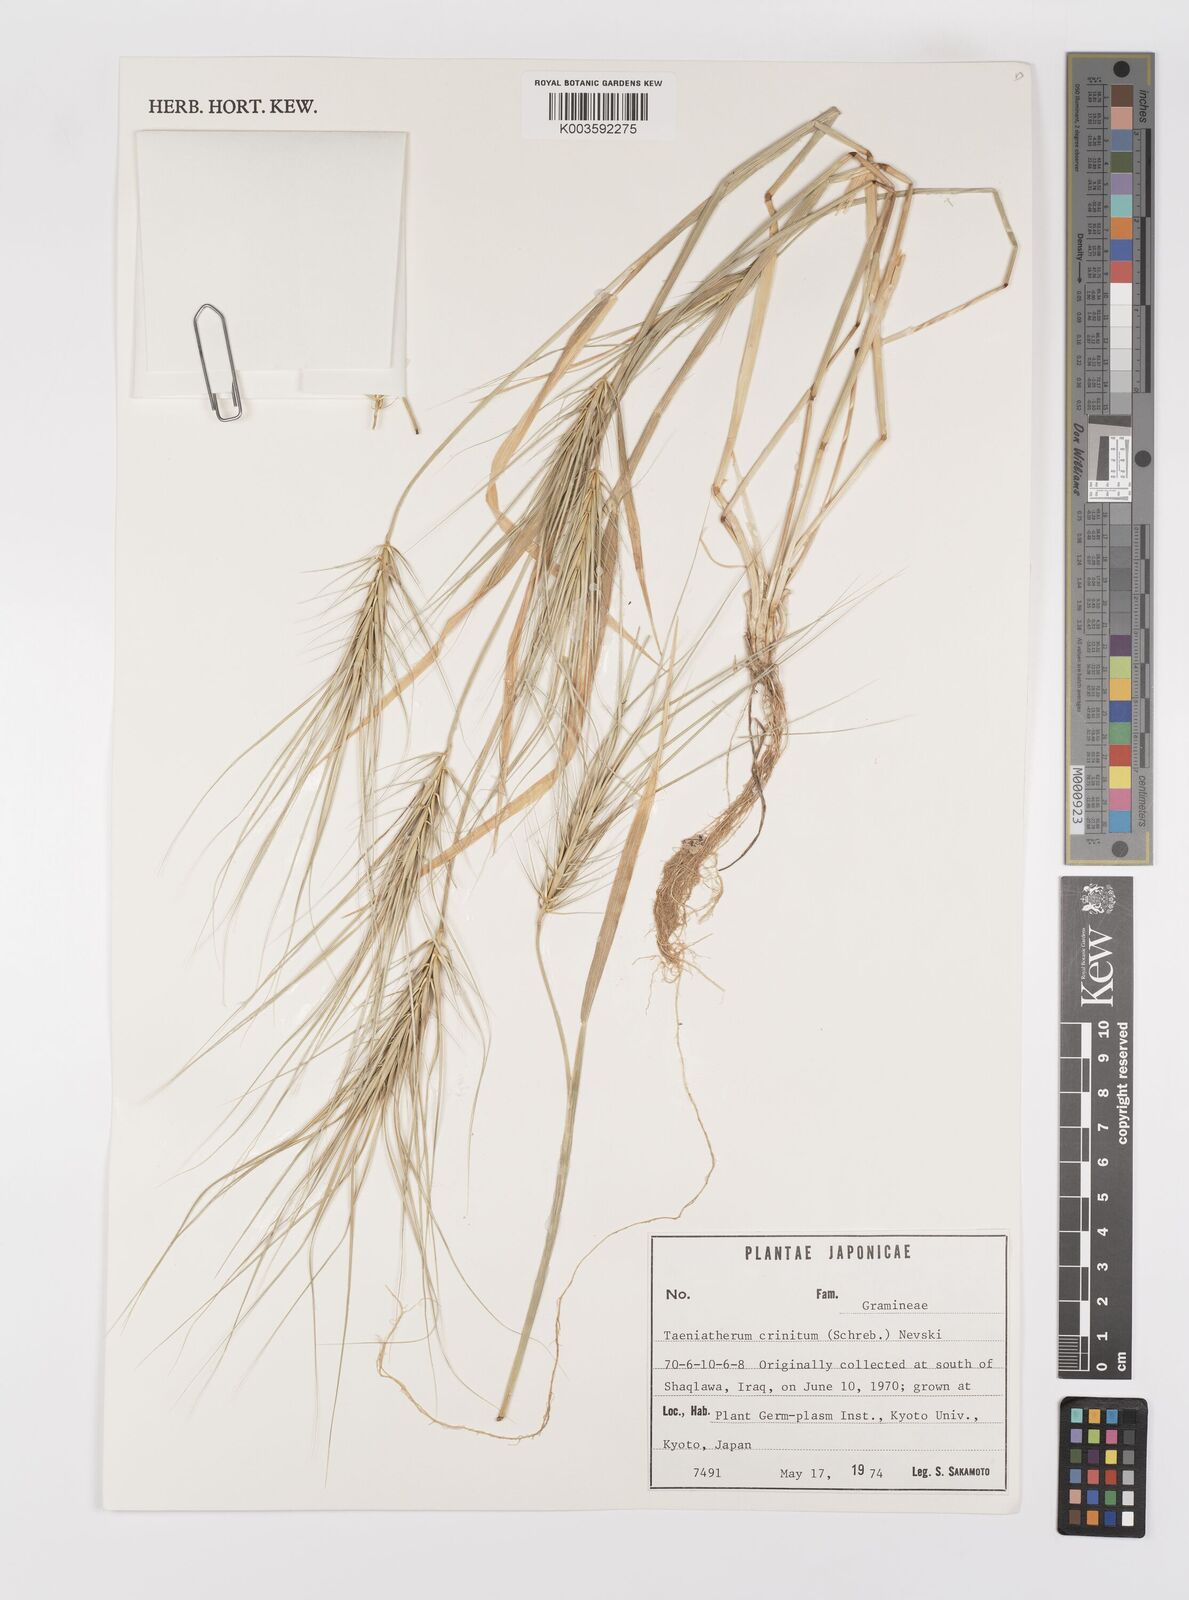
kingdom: Plantae
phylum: Tracheophyta
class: Liliopsida
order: Poales
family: Poaceae
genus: Taeniatherum
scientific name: Taeniatherum caput-medusae
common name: Medusahead
